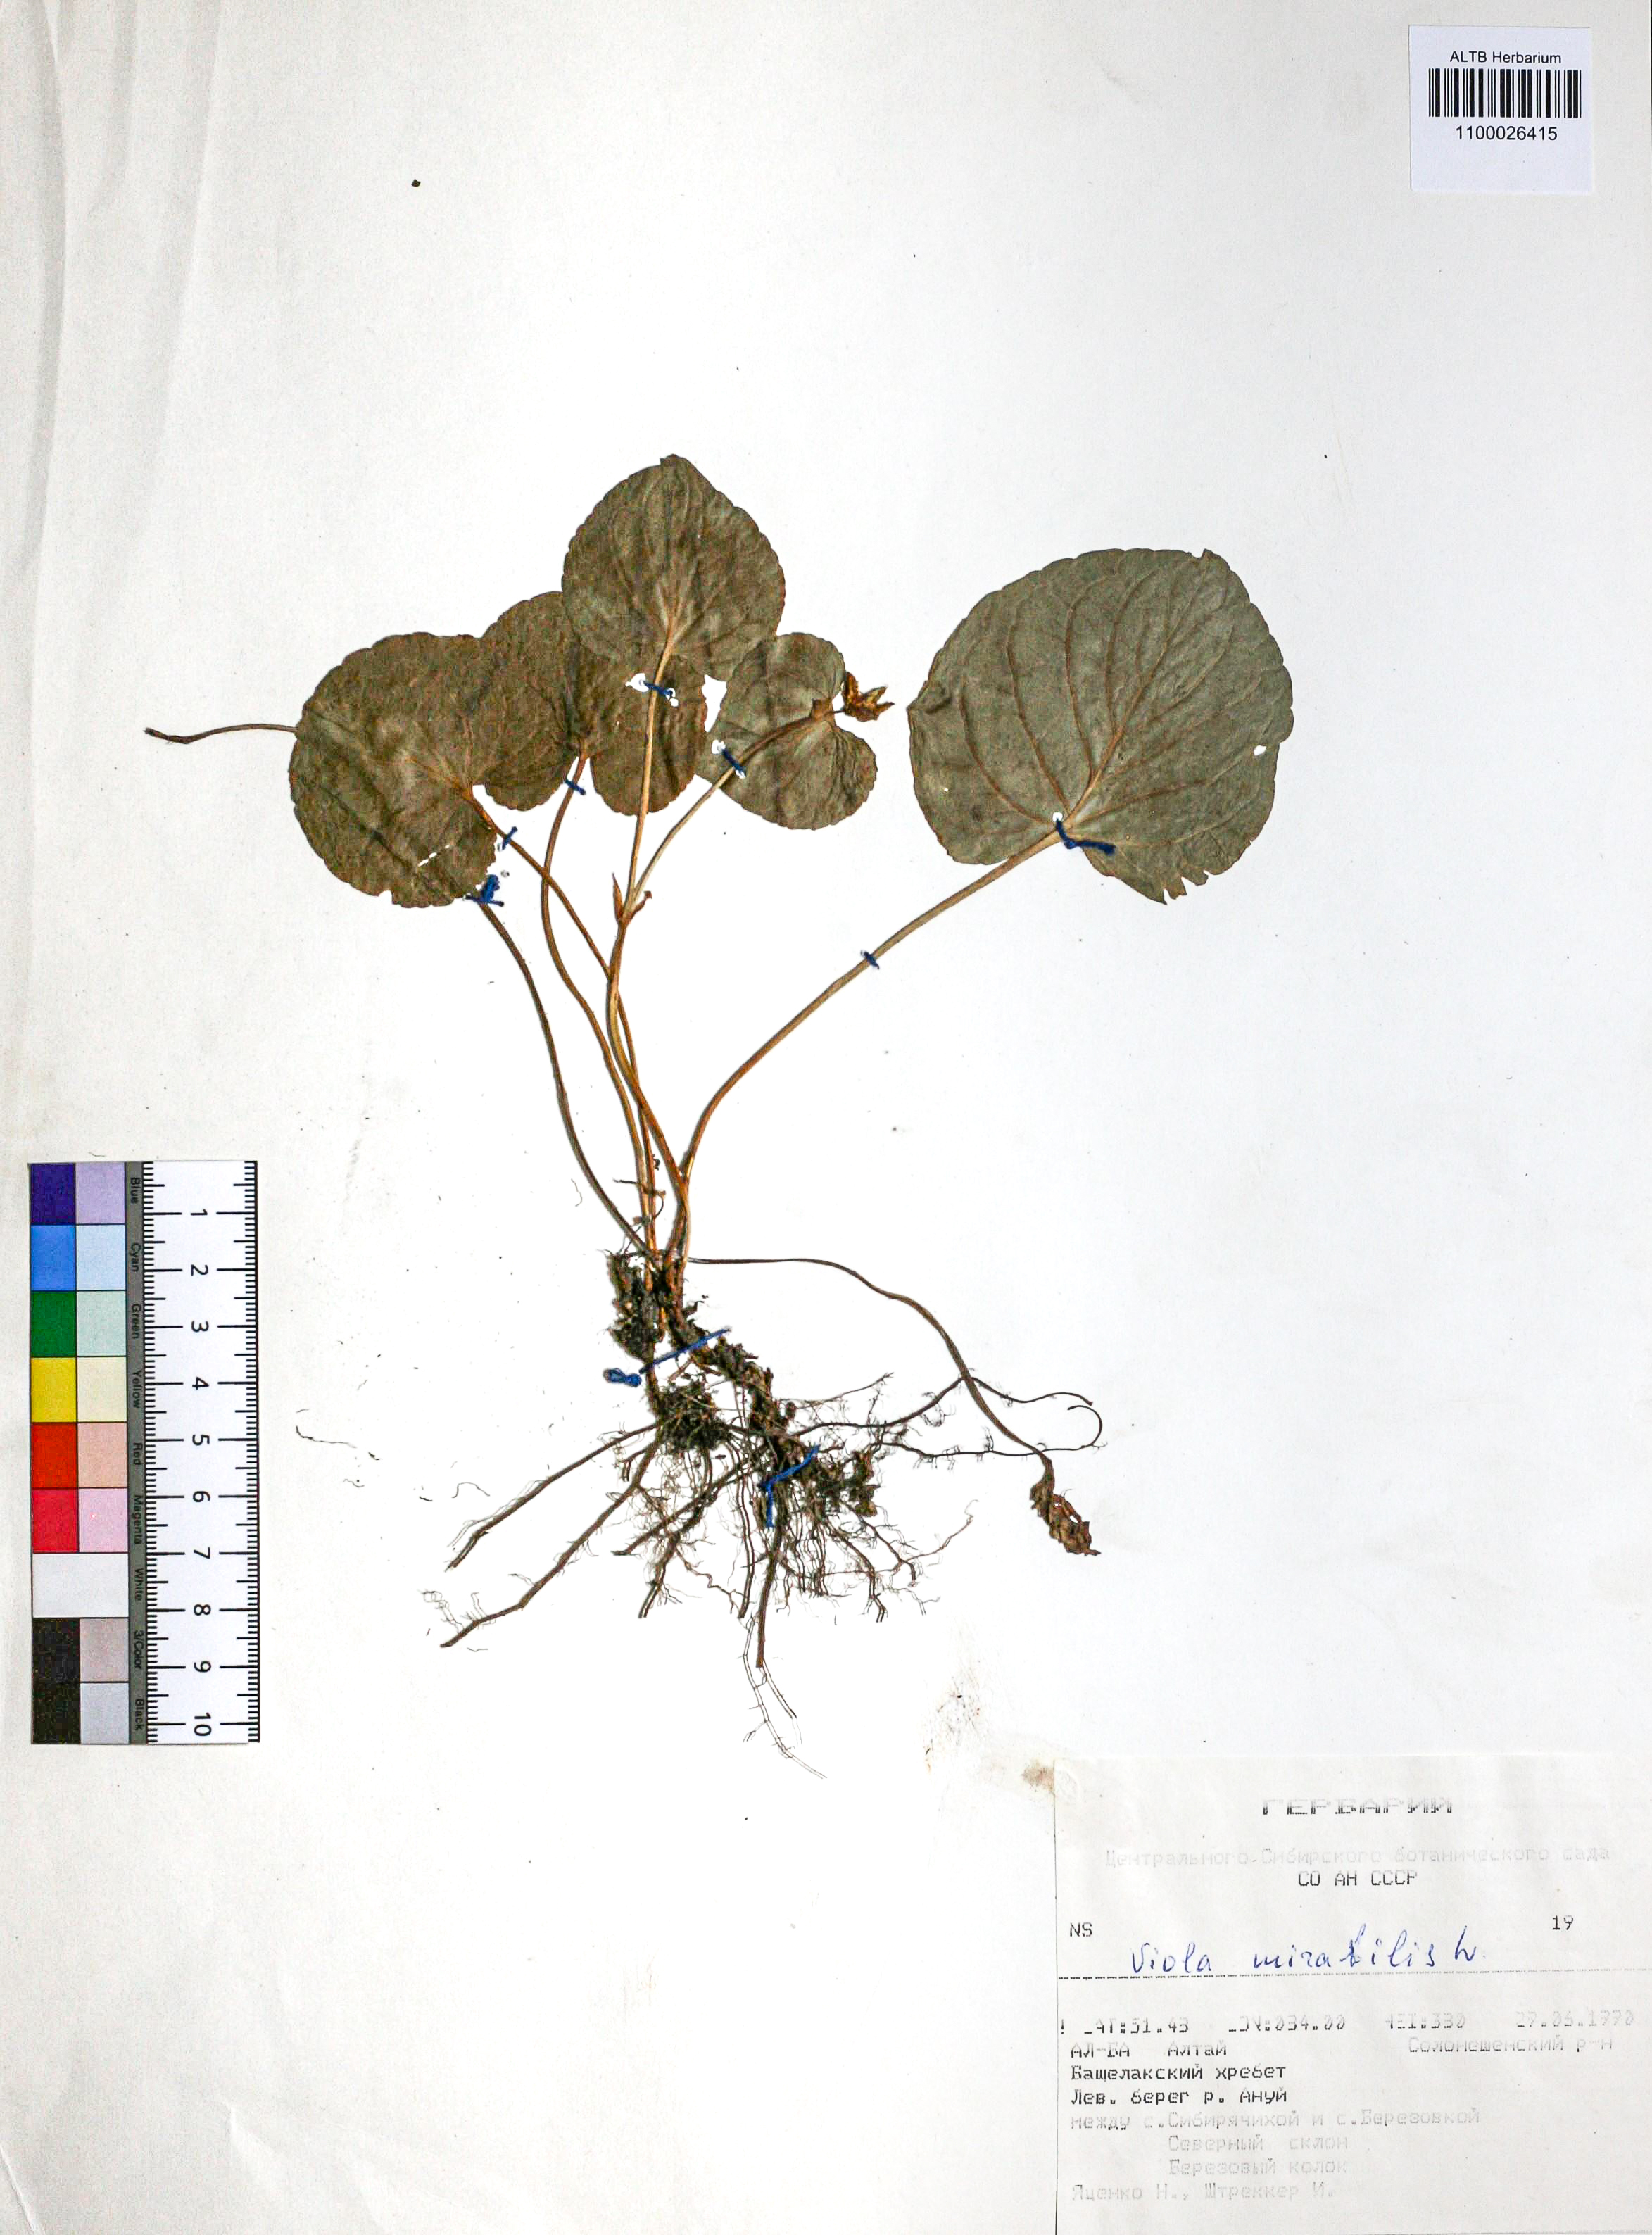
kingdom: Plantae
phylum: Tracheophyta
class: Magnoliopsida
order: Malpighiales
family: Violaceae
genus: Viola
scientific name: Viola mirabilis
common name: Wonder violet
